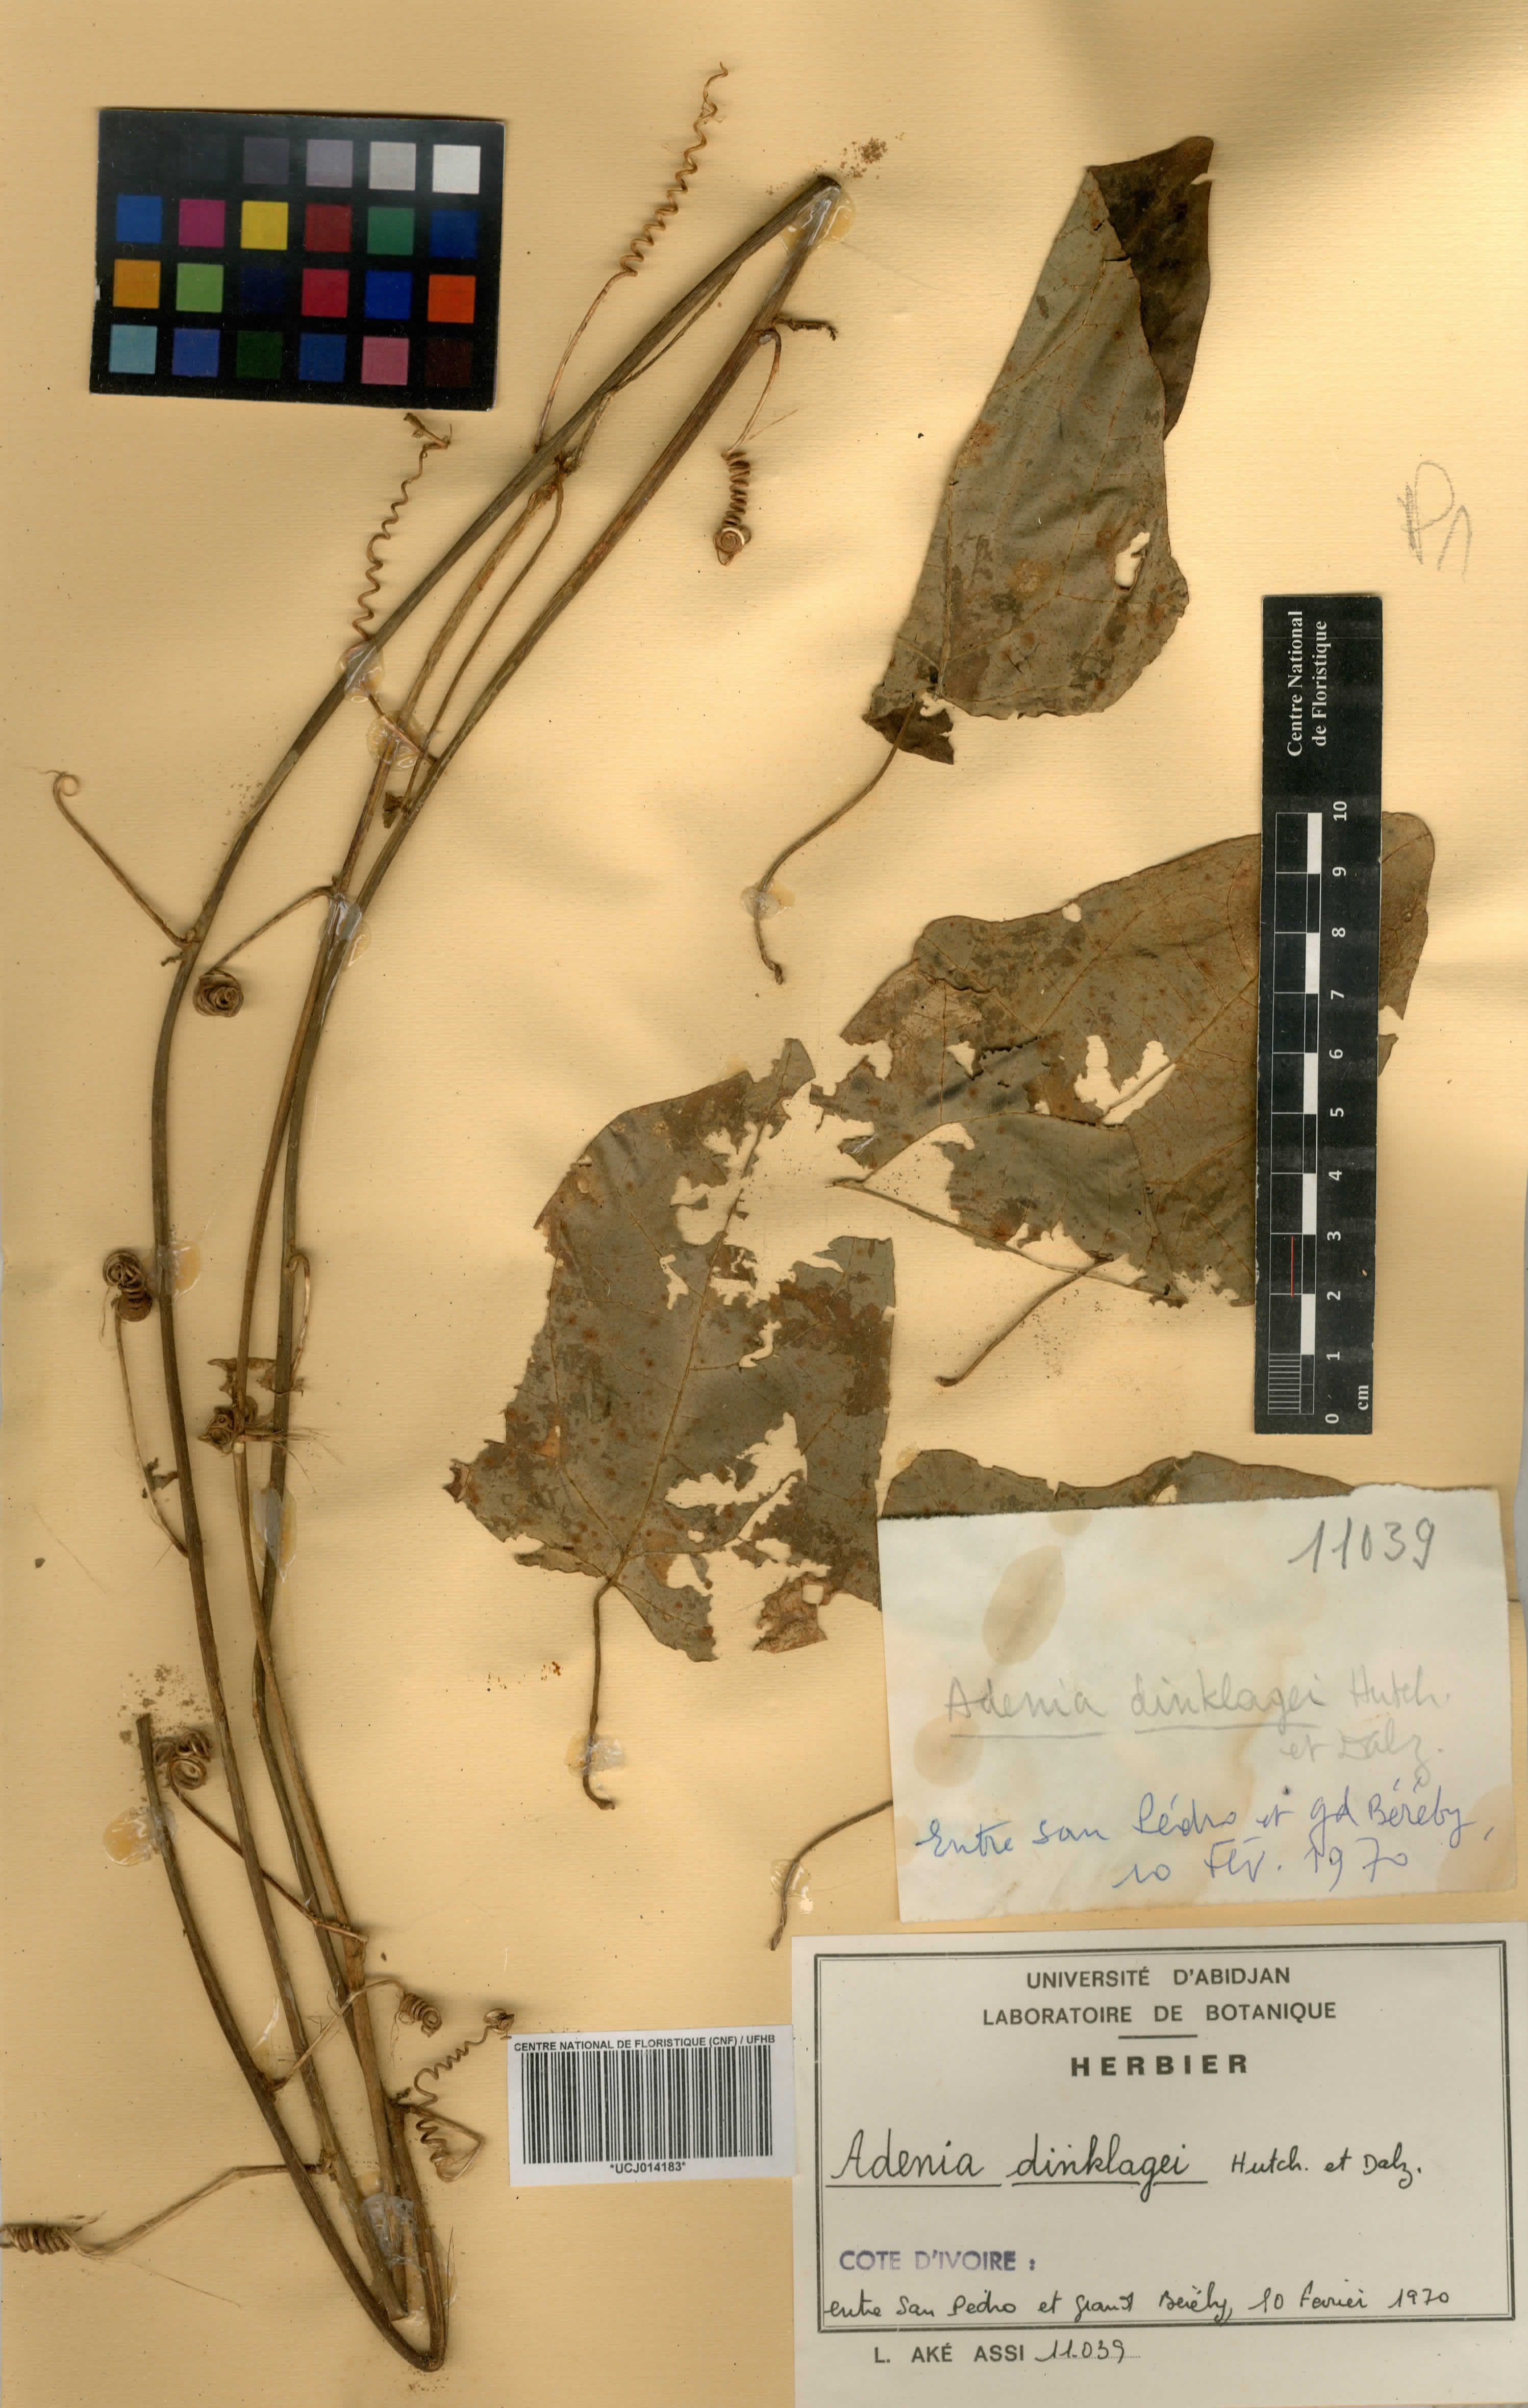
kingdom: Plantae
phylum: Tracheophyta
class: Magnoliopsida
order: Malpighiales
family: Passifloraceae
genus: Adenia
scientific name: Adenia dinklagei
